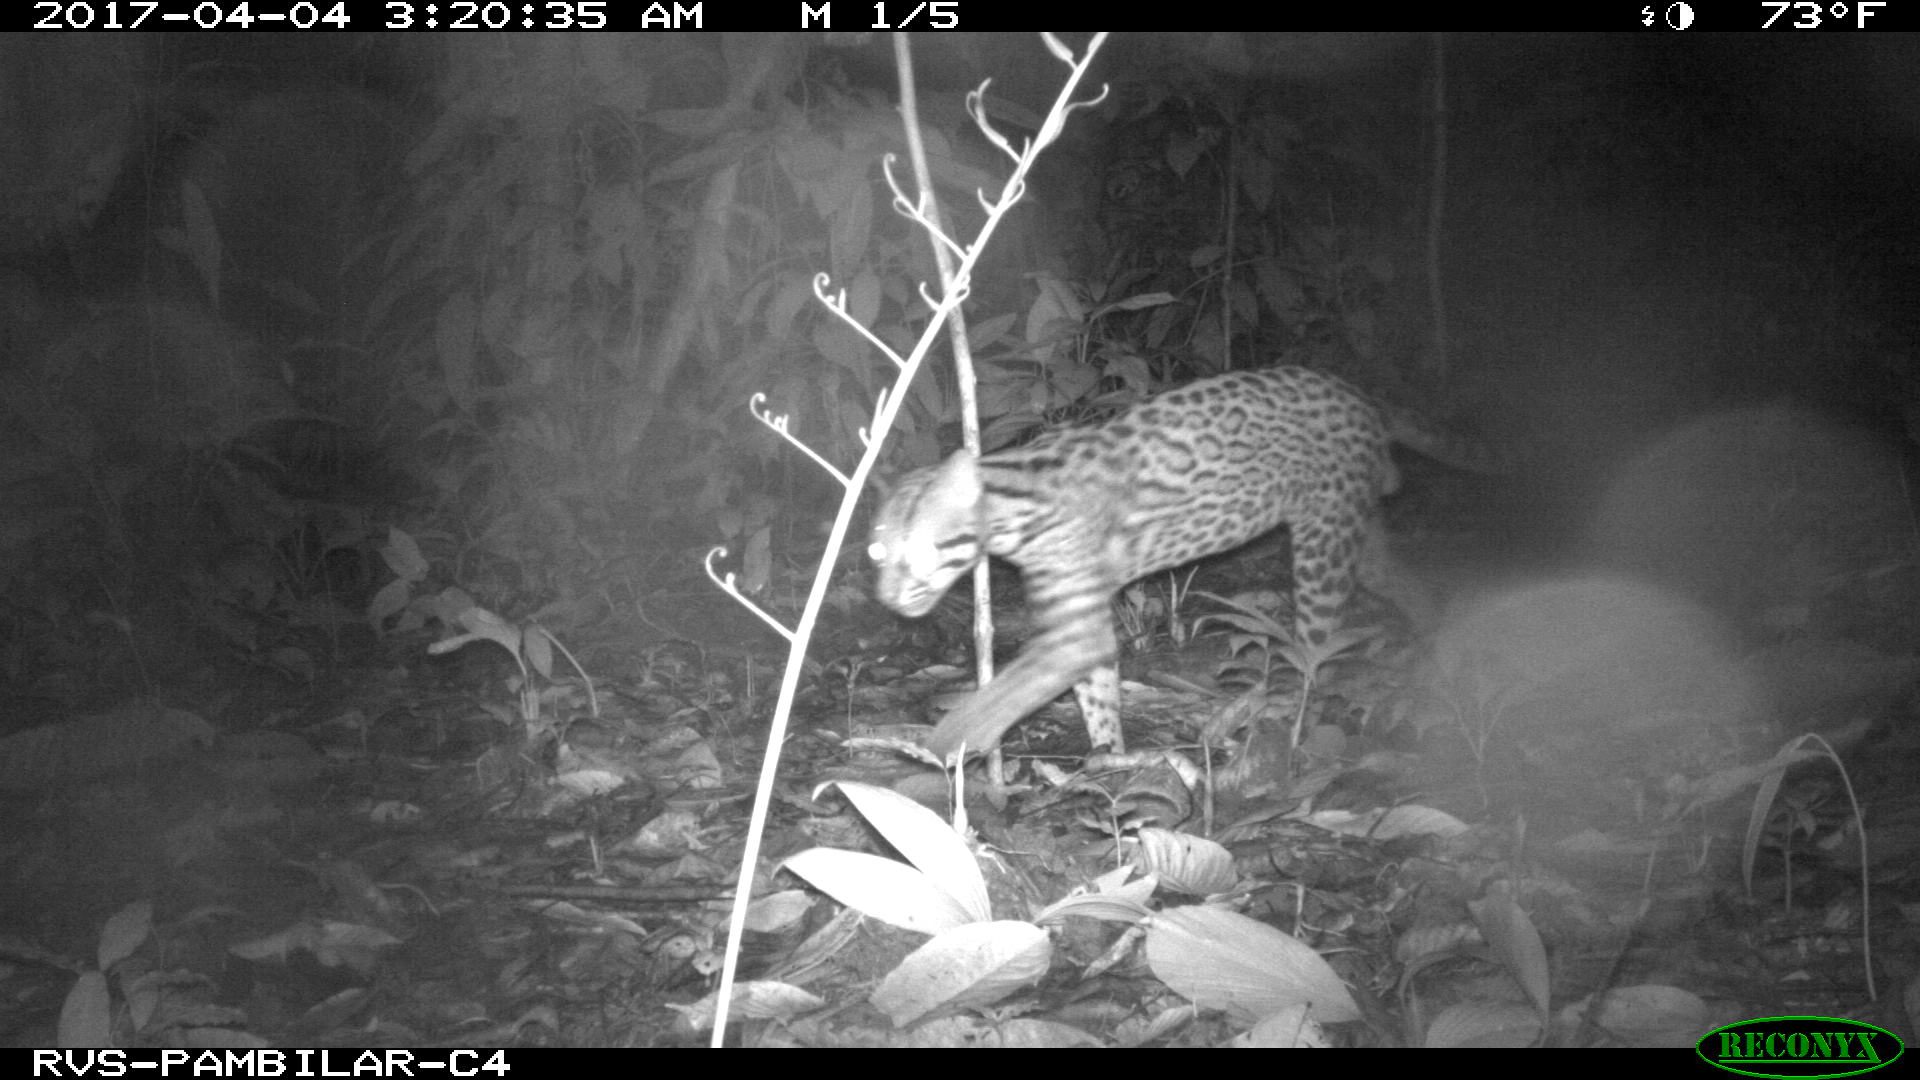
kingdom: Animalia
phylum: Chordata
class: Mammalia
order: Carnivora
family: Felidae
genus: Leopardus
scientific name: Leopardus pardalis
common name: Ocelot
